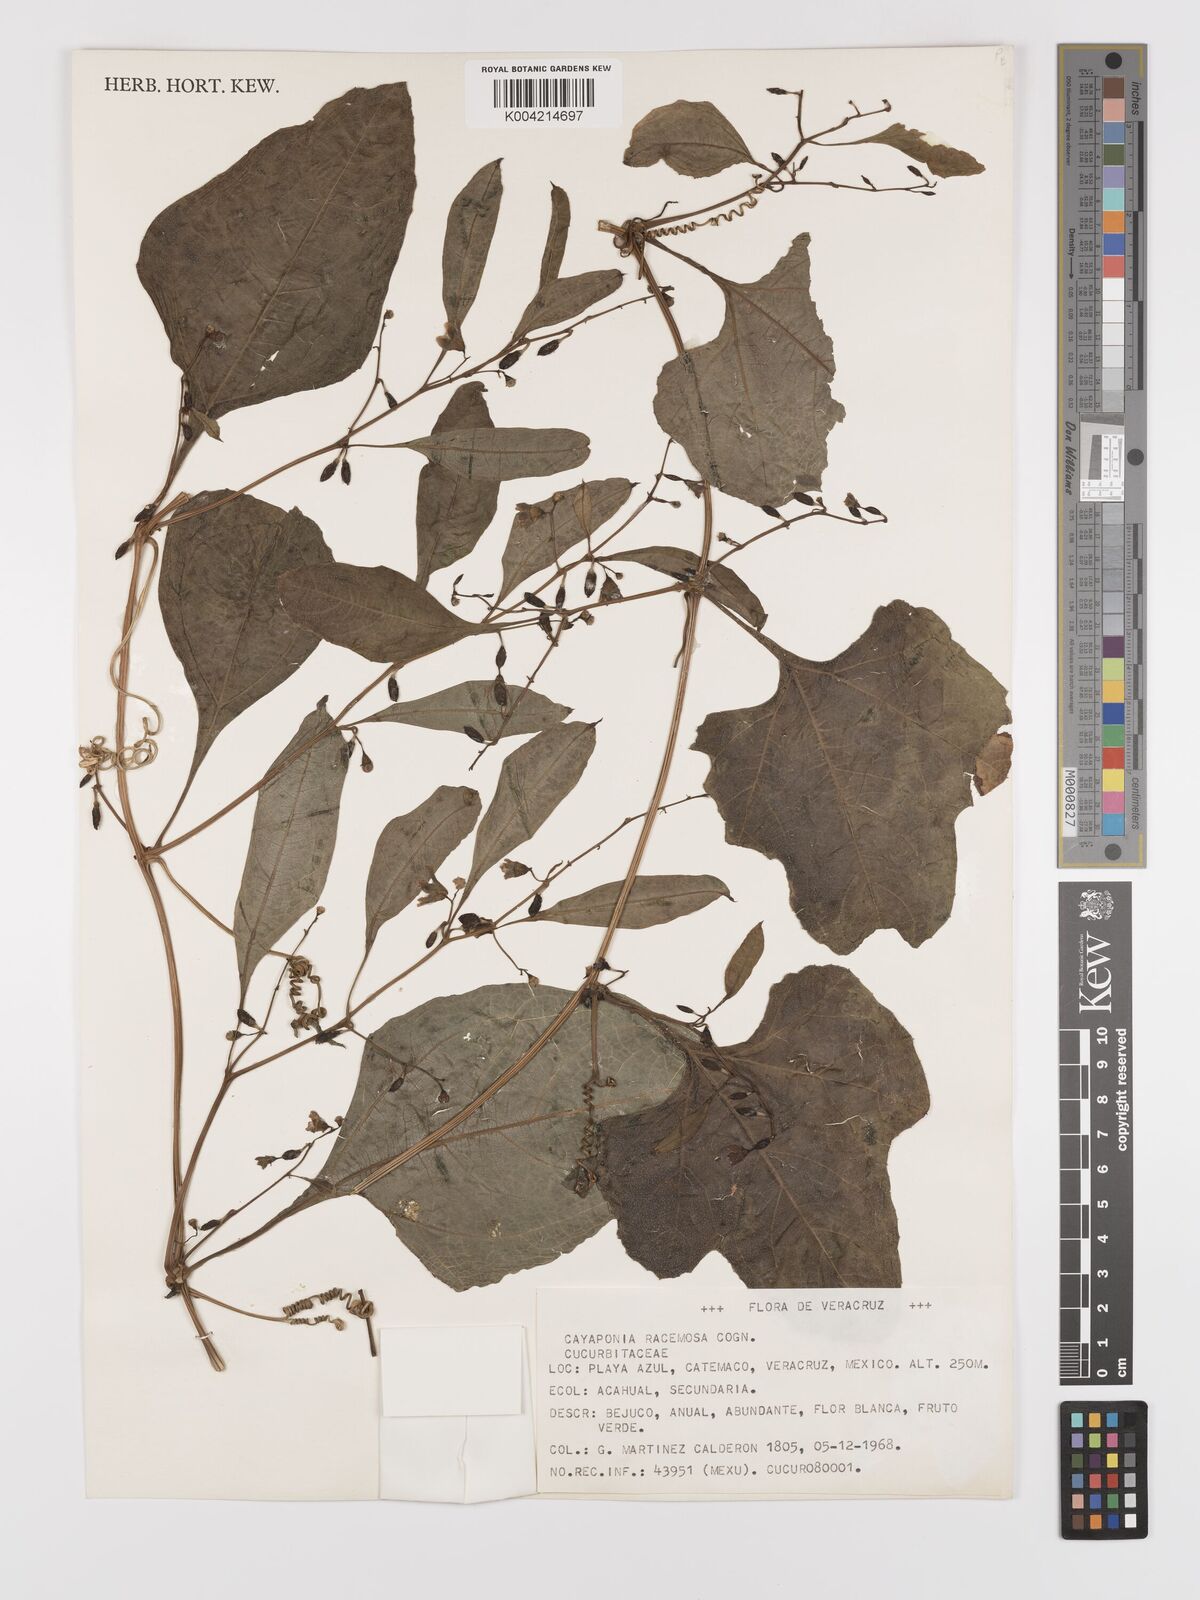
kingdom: Plantae
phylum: Tracheophyta
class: Magnoliopsida
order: Cucurbitales
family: Cucurbitaceae
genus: Cayaponia
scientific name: Cayaponia racemosa
